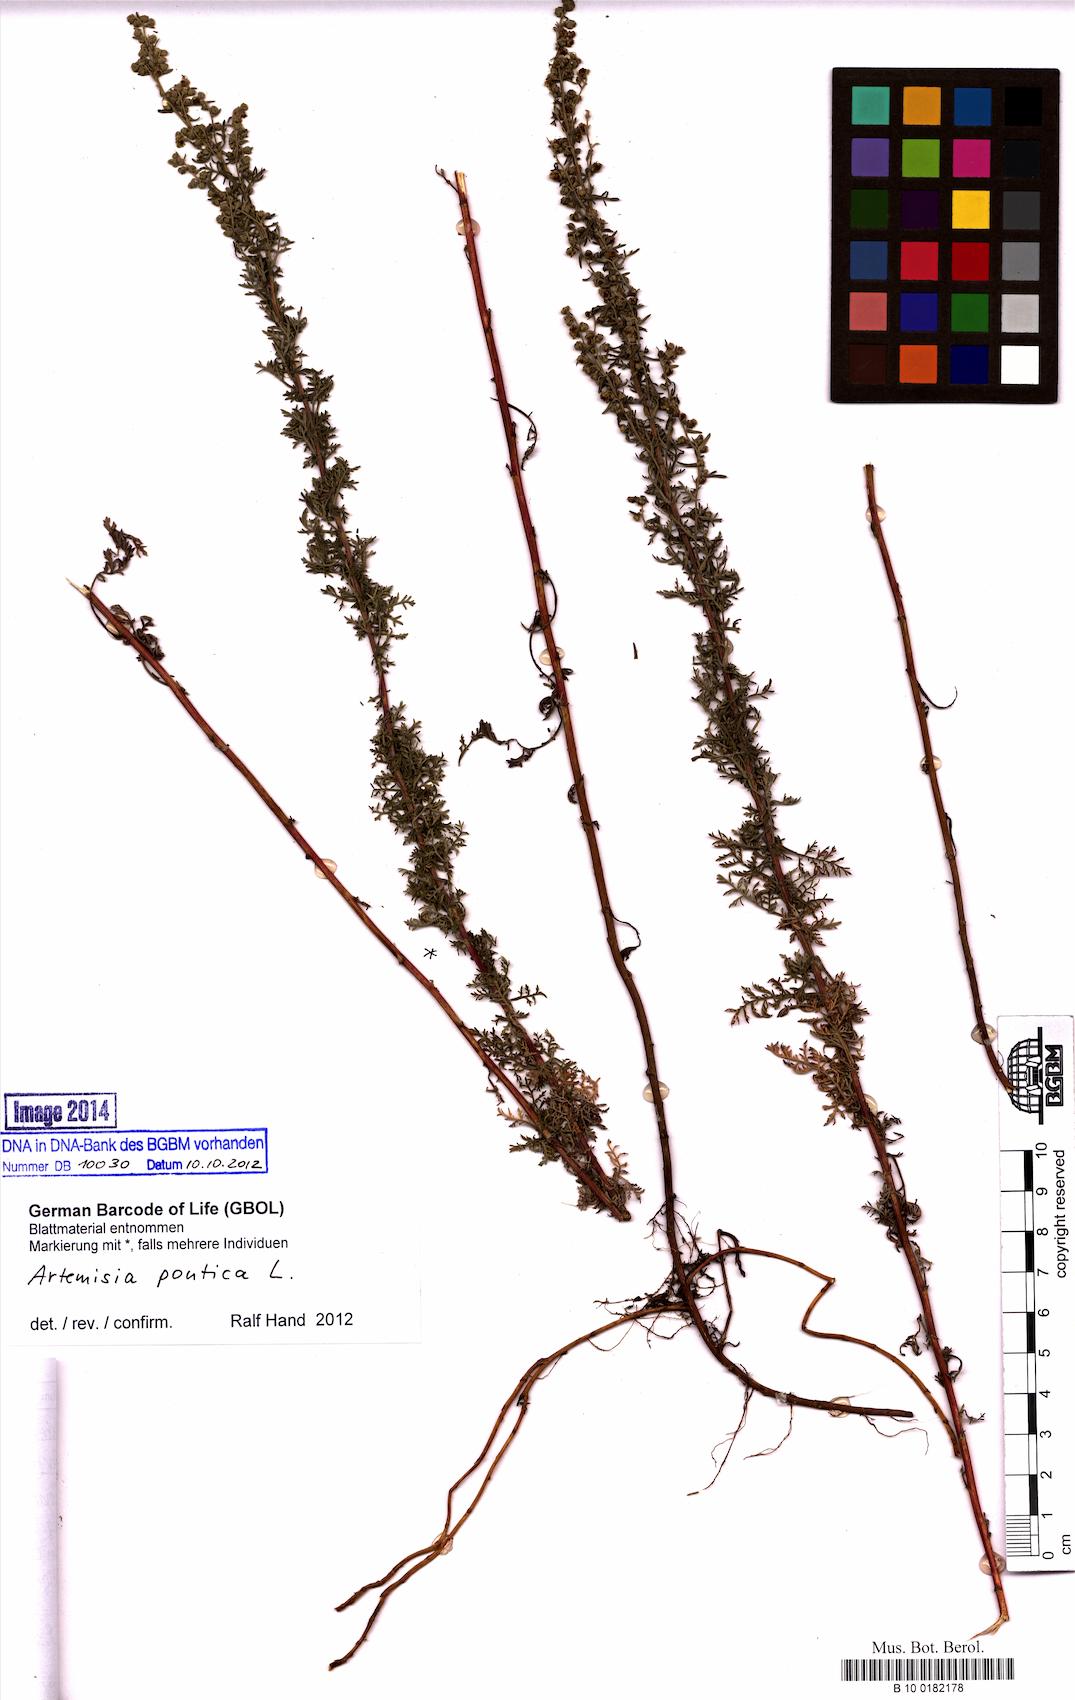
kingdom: Plantae
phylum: Tracheophyta
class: Magnoliopsida
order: Asterales
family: Asteraceae
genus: Artemisia
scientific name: Artemisia pontica
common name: Roman wormwood
